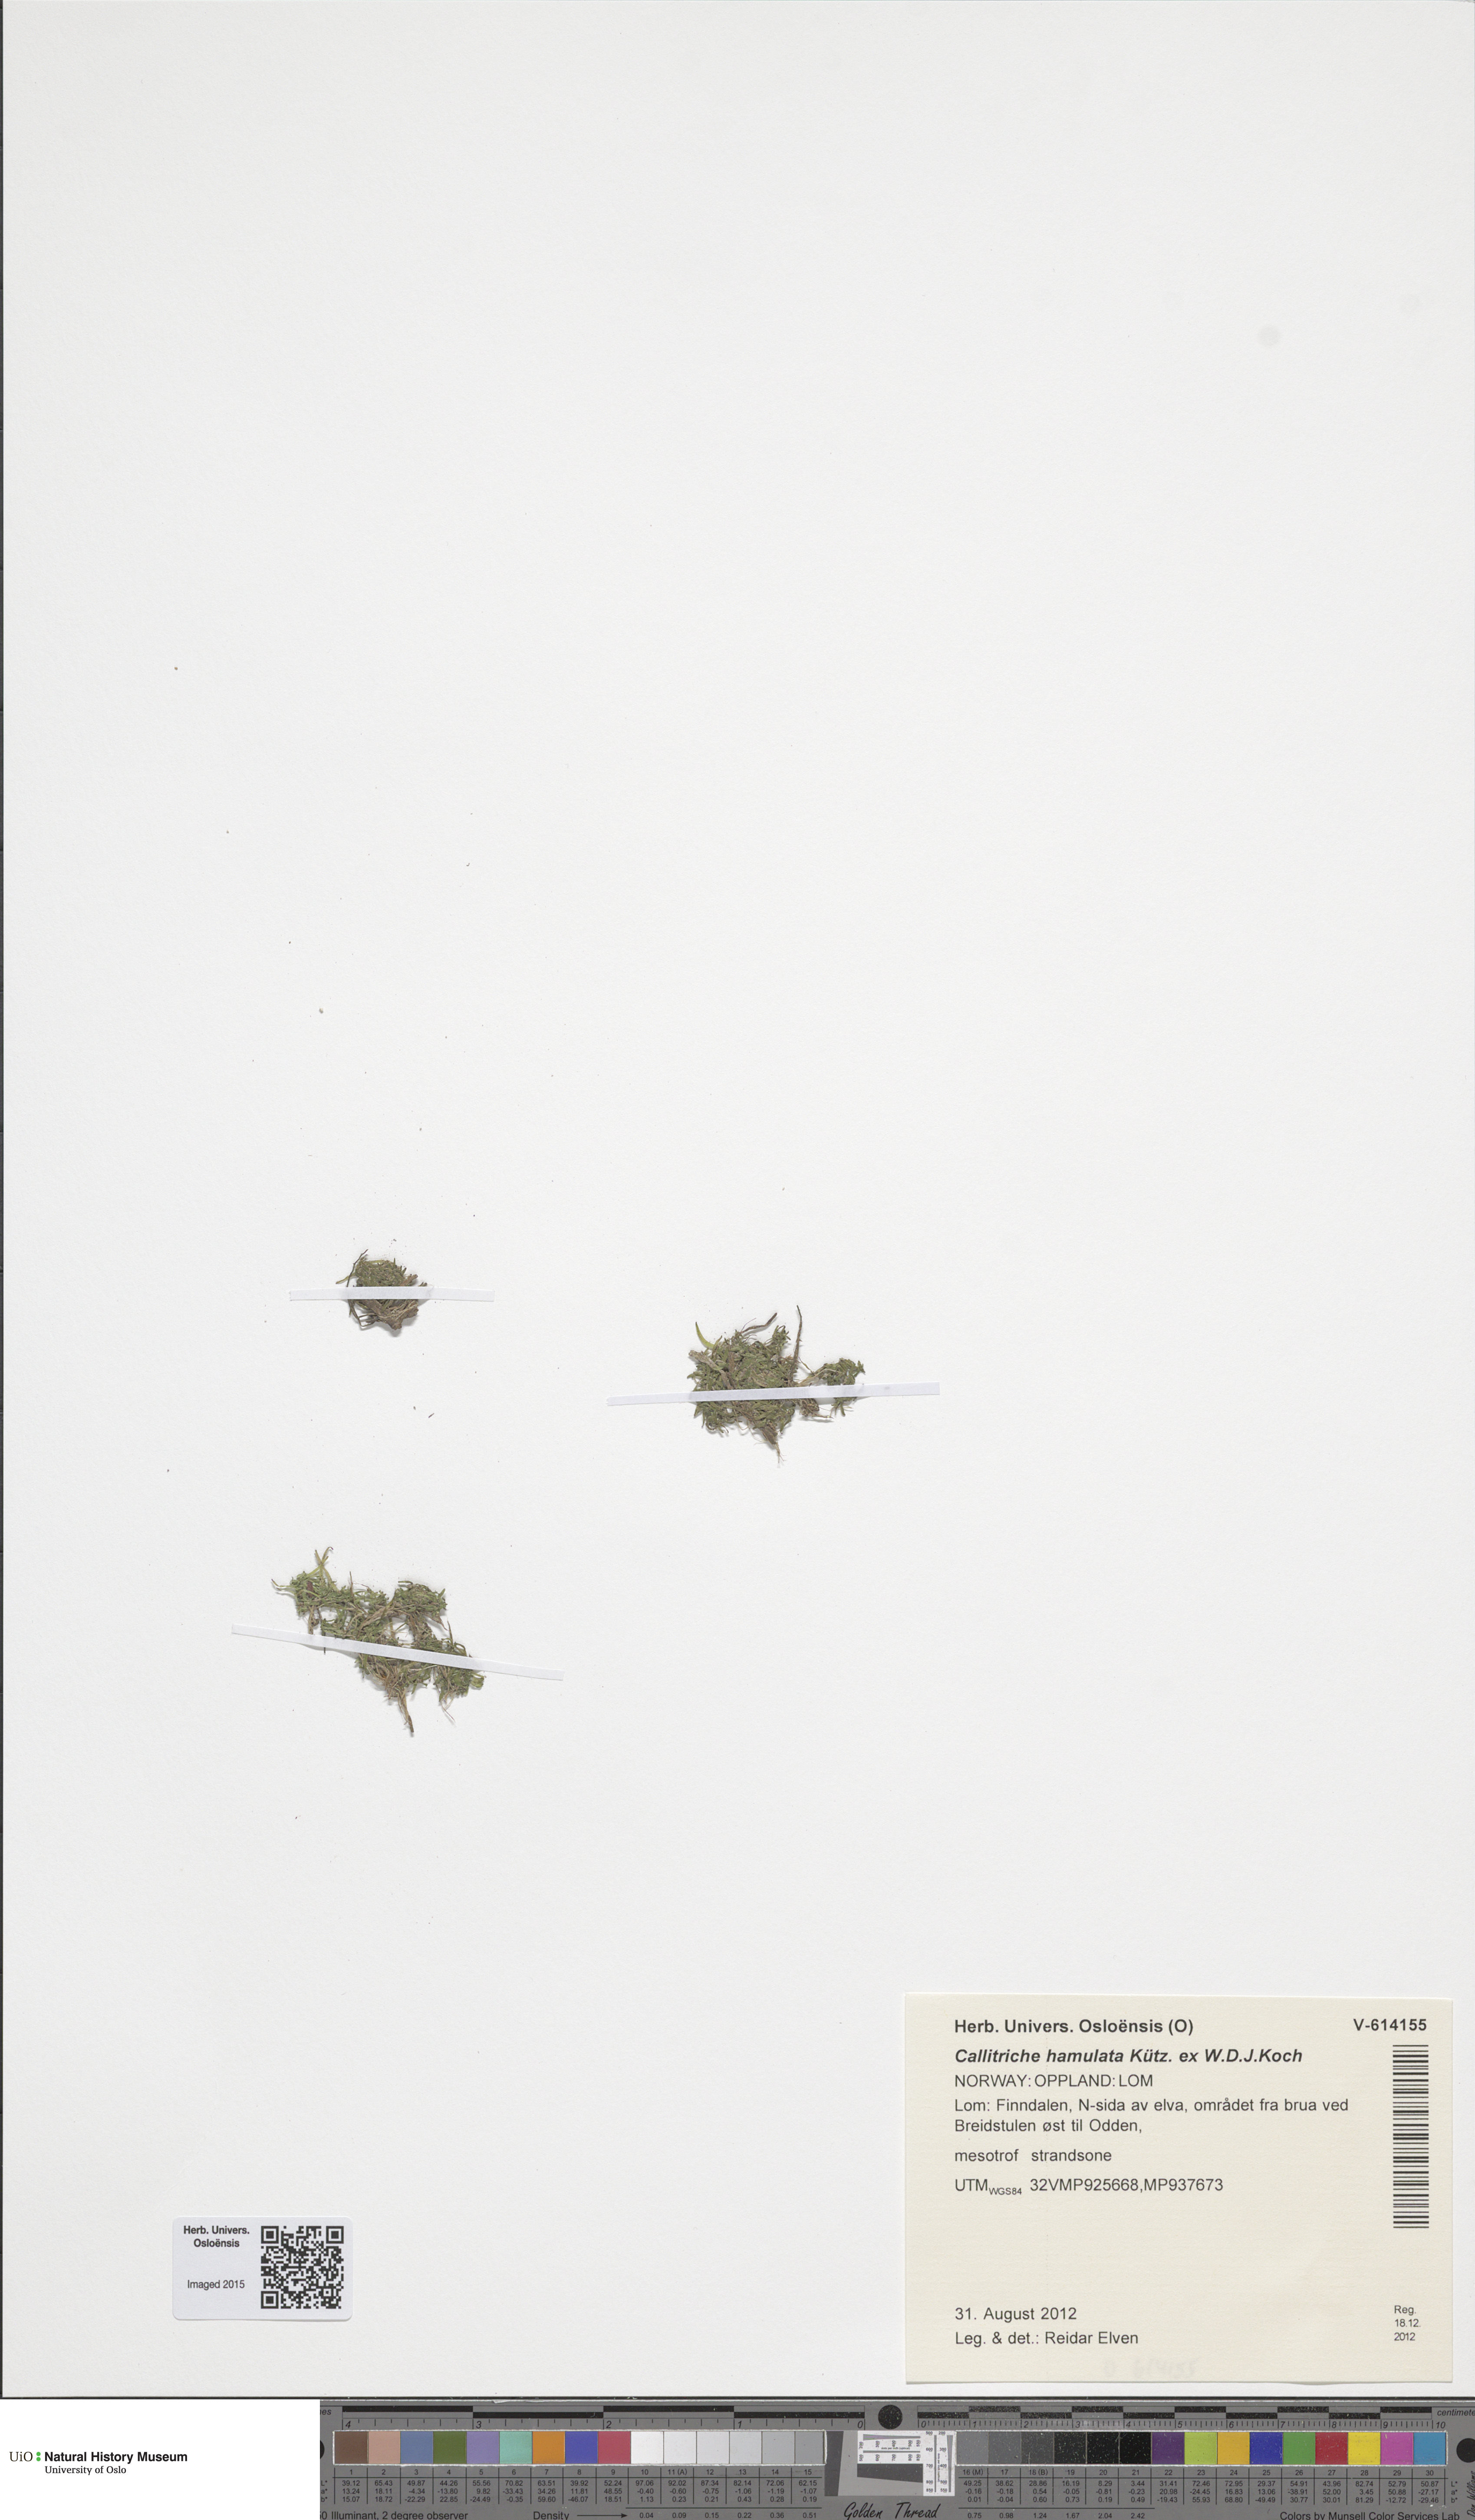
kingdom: Plantae
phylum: Tracheophyta
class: Magnoliopsida
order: Lamiales
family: Plantaginaceae
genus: Callitriche
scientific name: Callitriche hamulata
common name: Intermediate water-starwort
